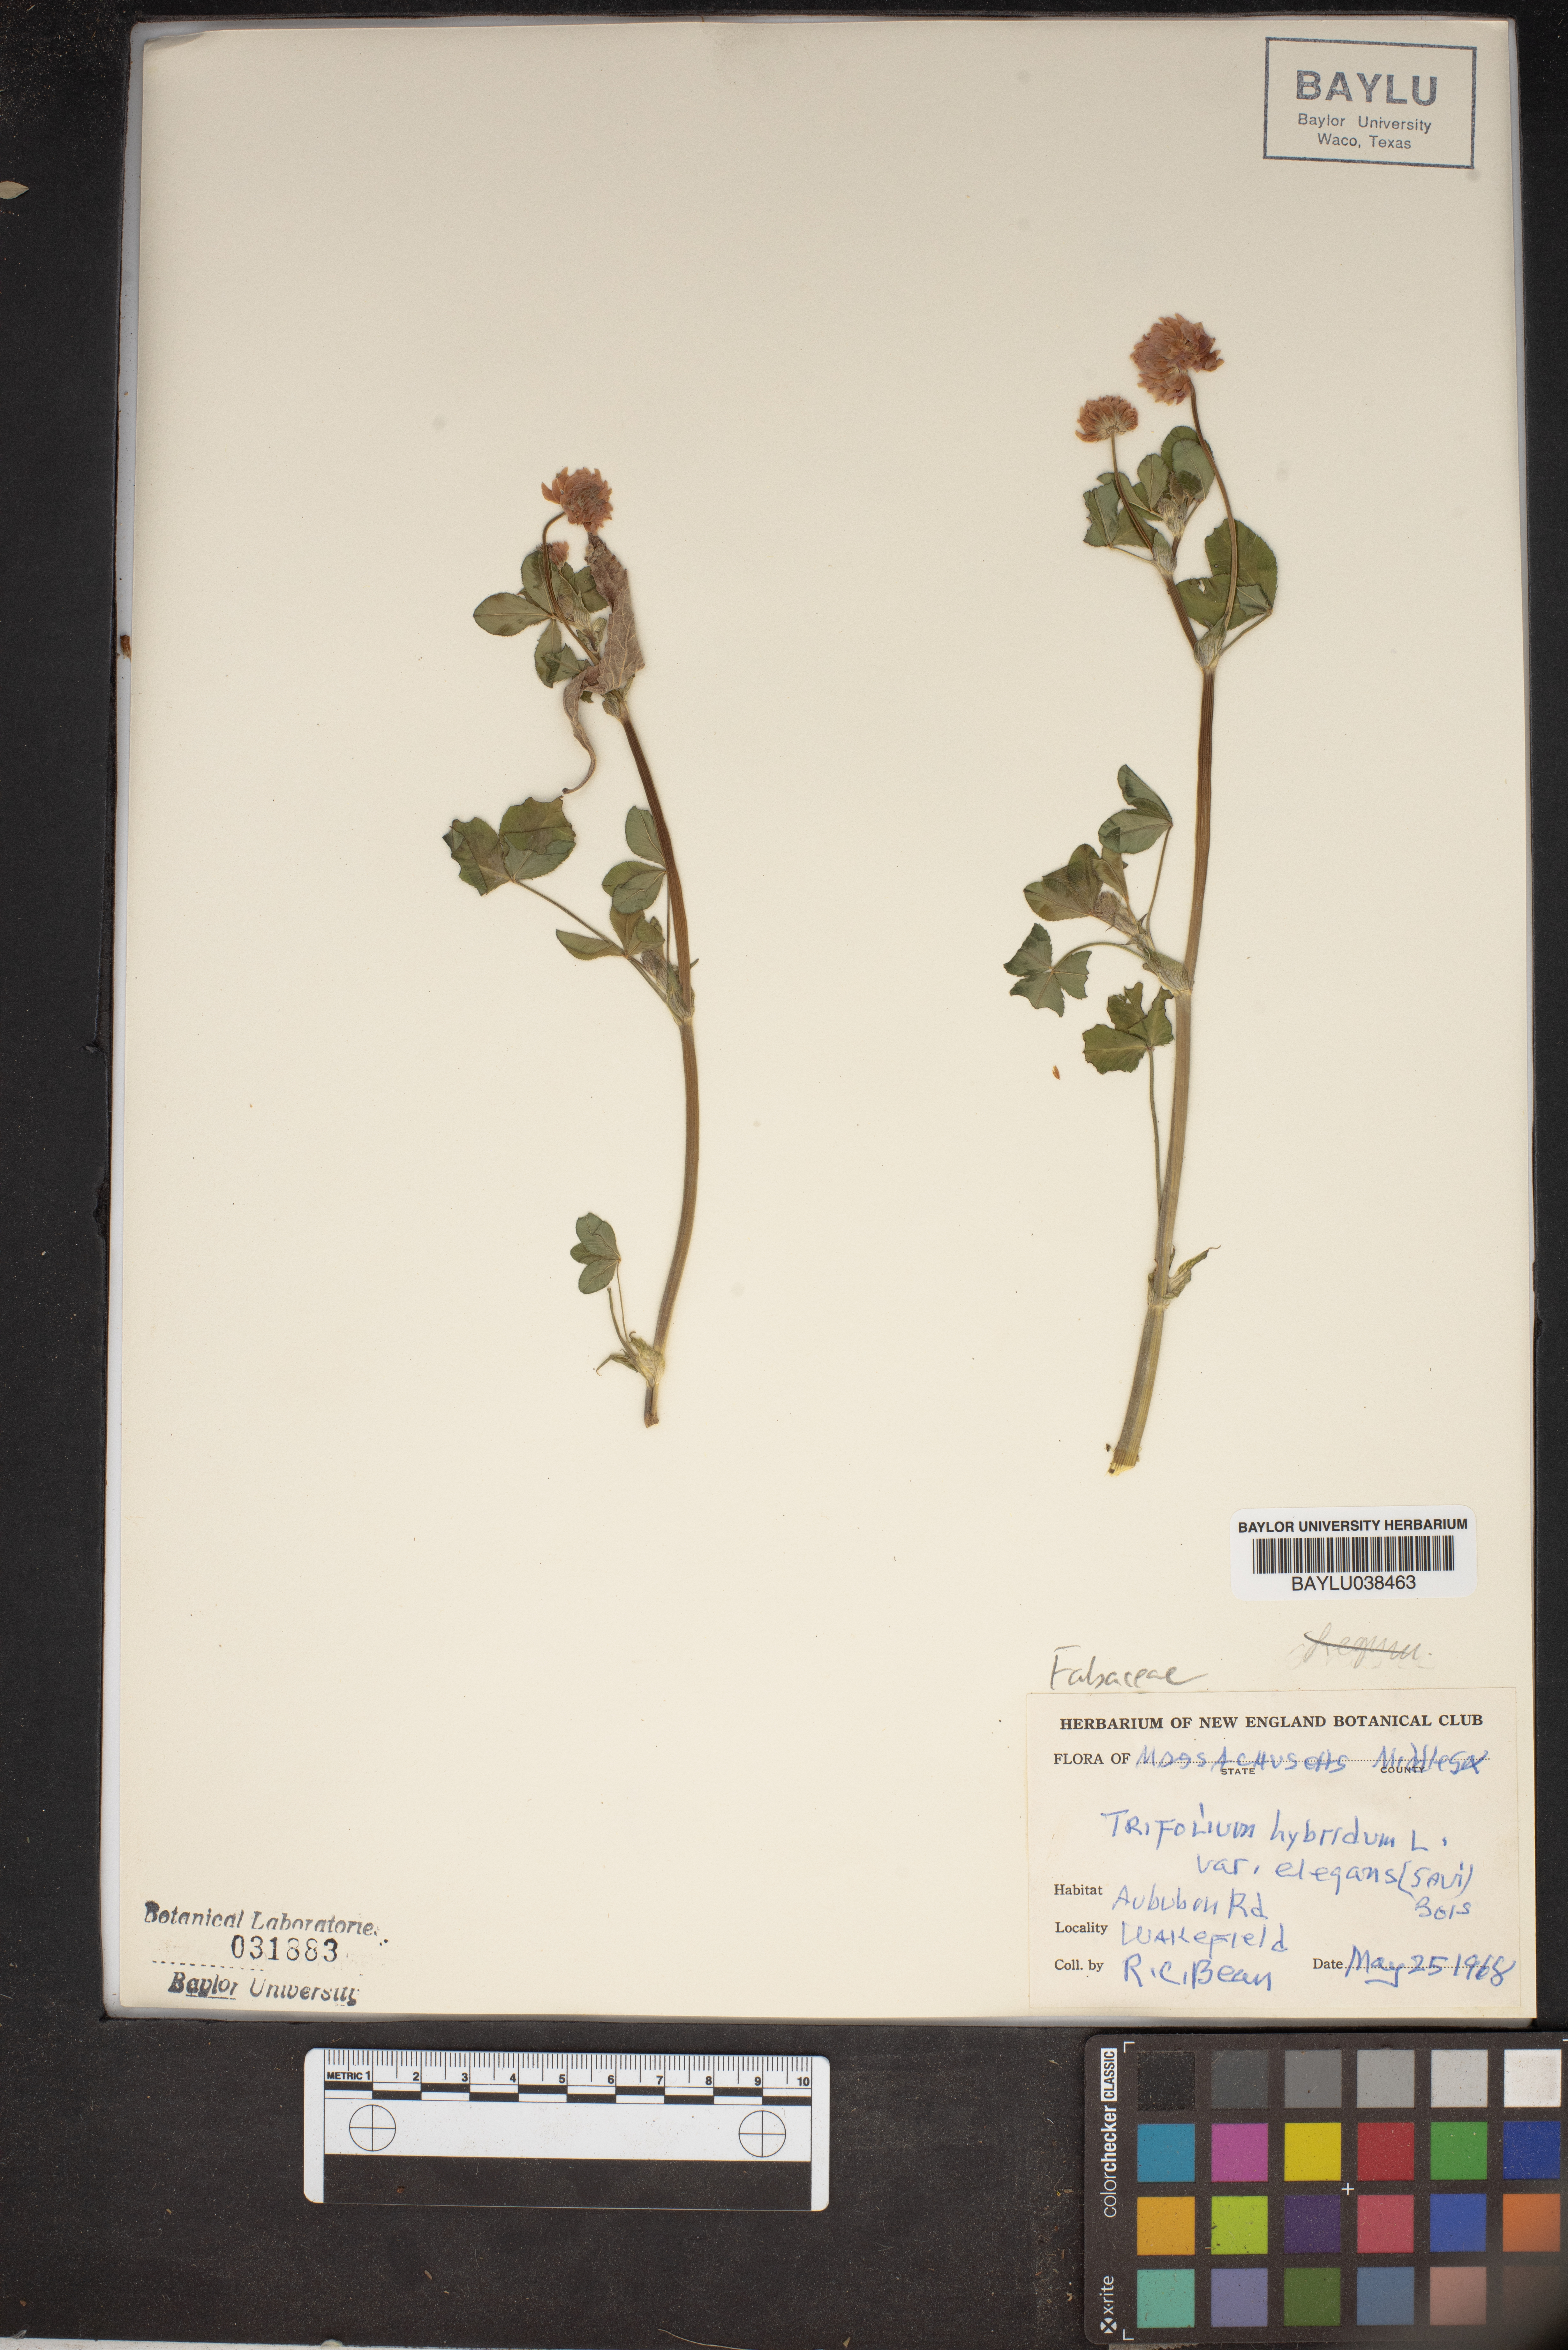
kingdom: Plantae
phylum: Tracheophyta
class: Magnoliopsida
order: Fabales
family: Fabaceae
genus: Trifolium
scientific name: Trifolium hybridum
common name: Alsike clover
